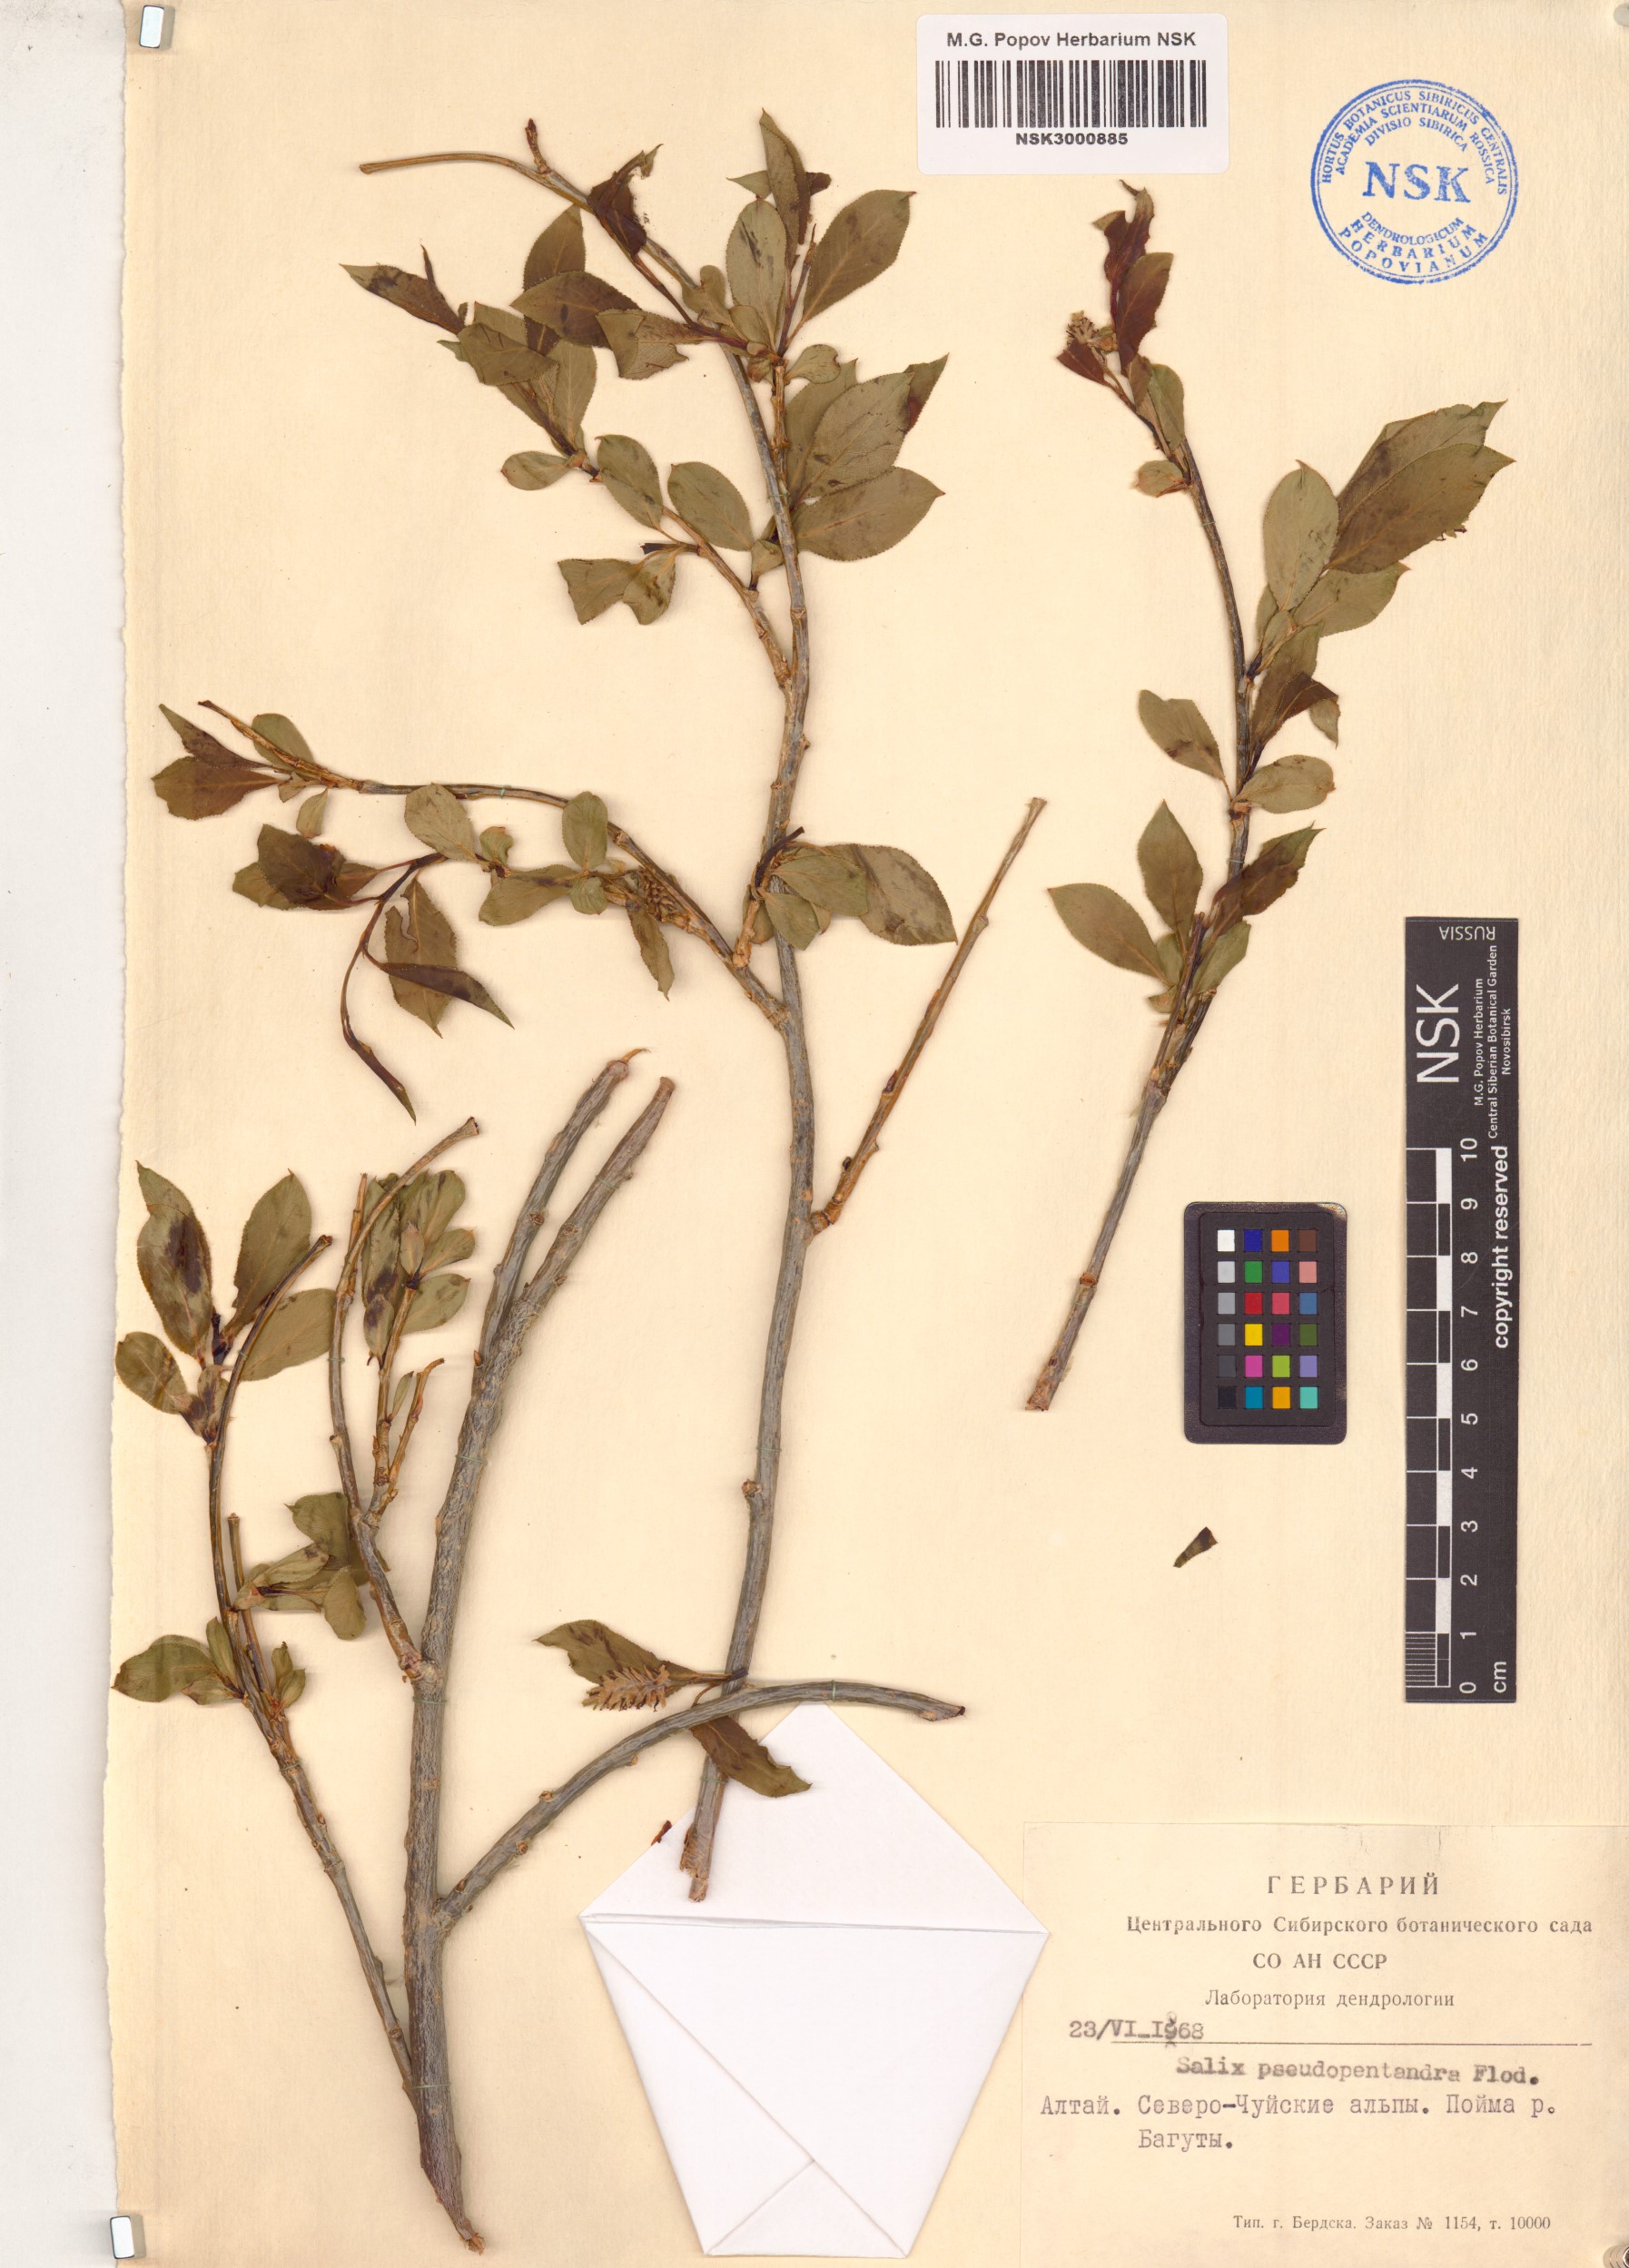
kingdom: Plantae
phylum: Tracheophyta
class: Magnoliopsida
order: Malpighiales
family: Salicaceae
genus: Salix
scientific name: Salix pseudopentandra
